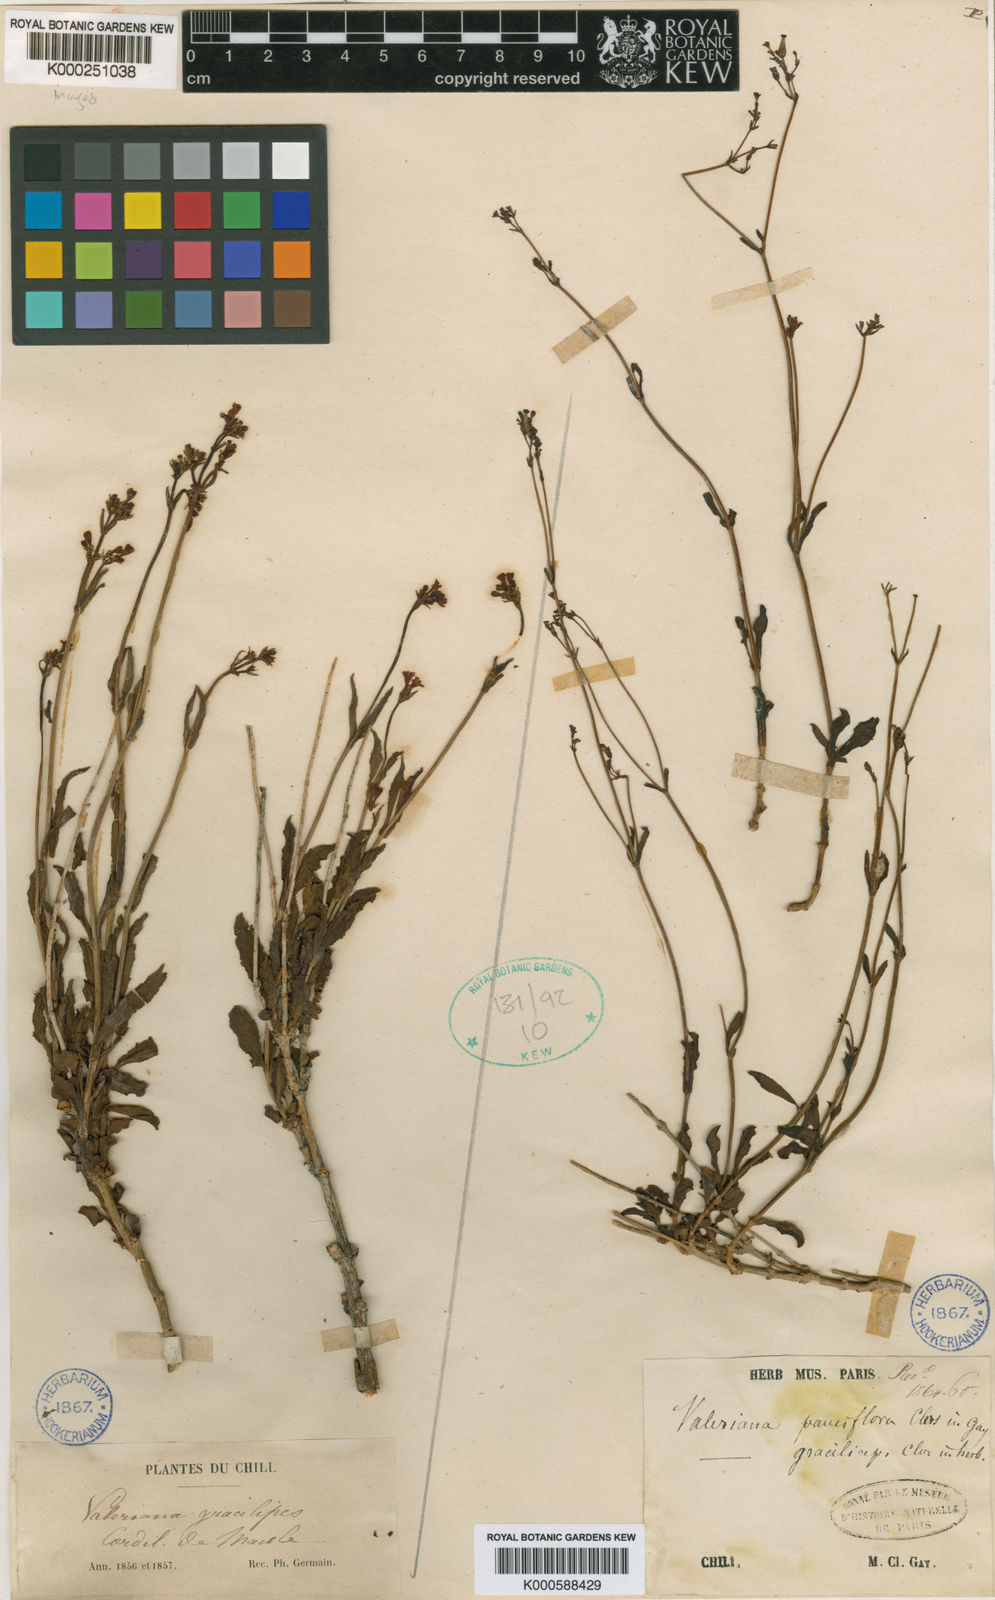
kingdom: Plantae
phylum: Tracheophyta
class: Magnoliopsida
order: Dipsacales
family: Caprifoliaceae
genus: Valeriana
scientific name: Valeriana
